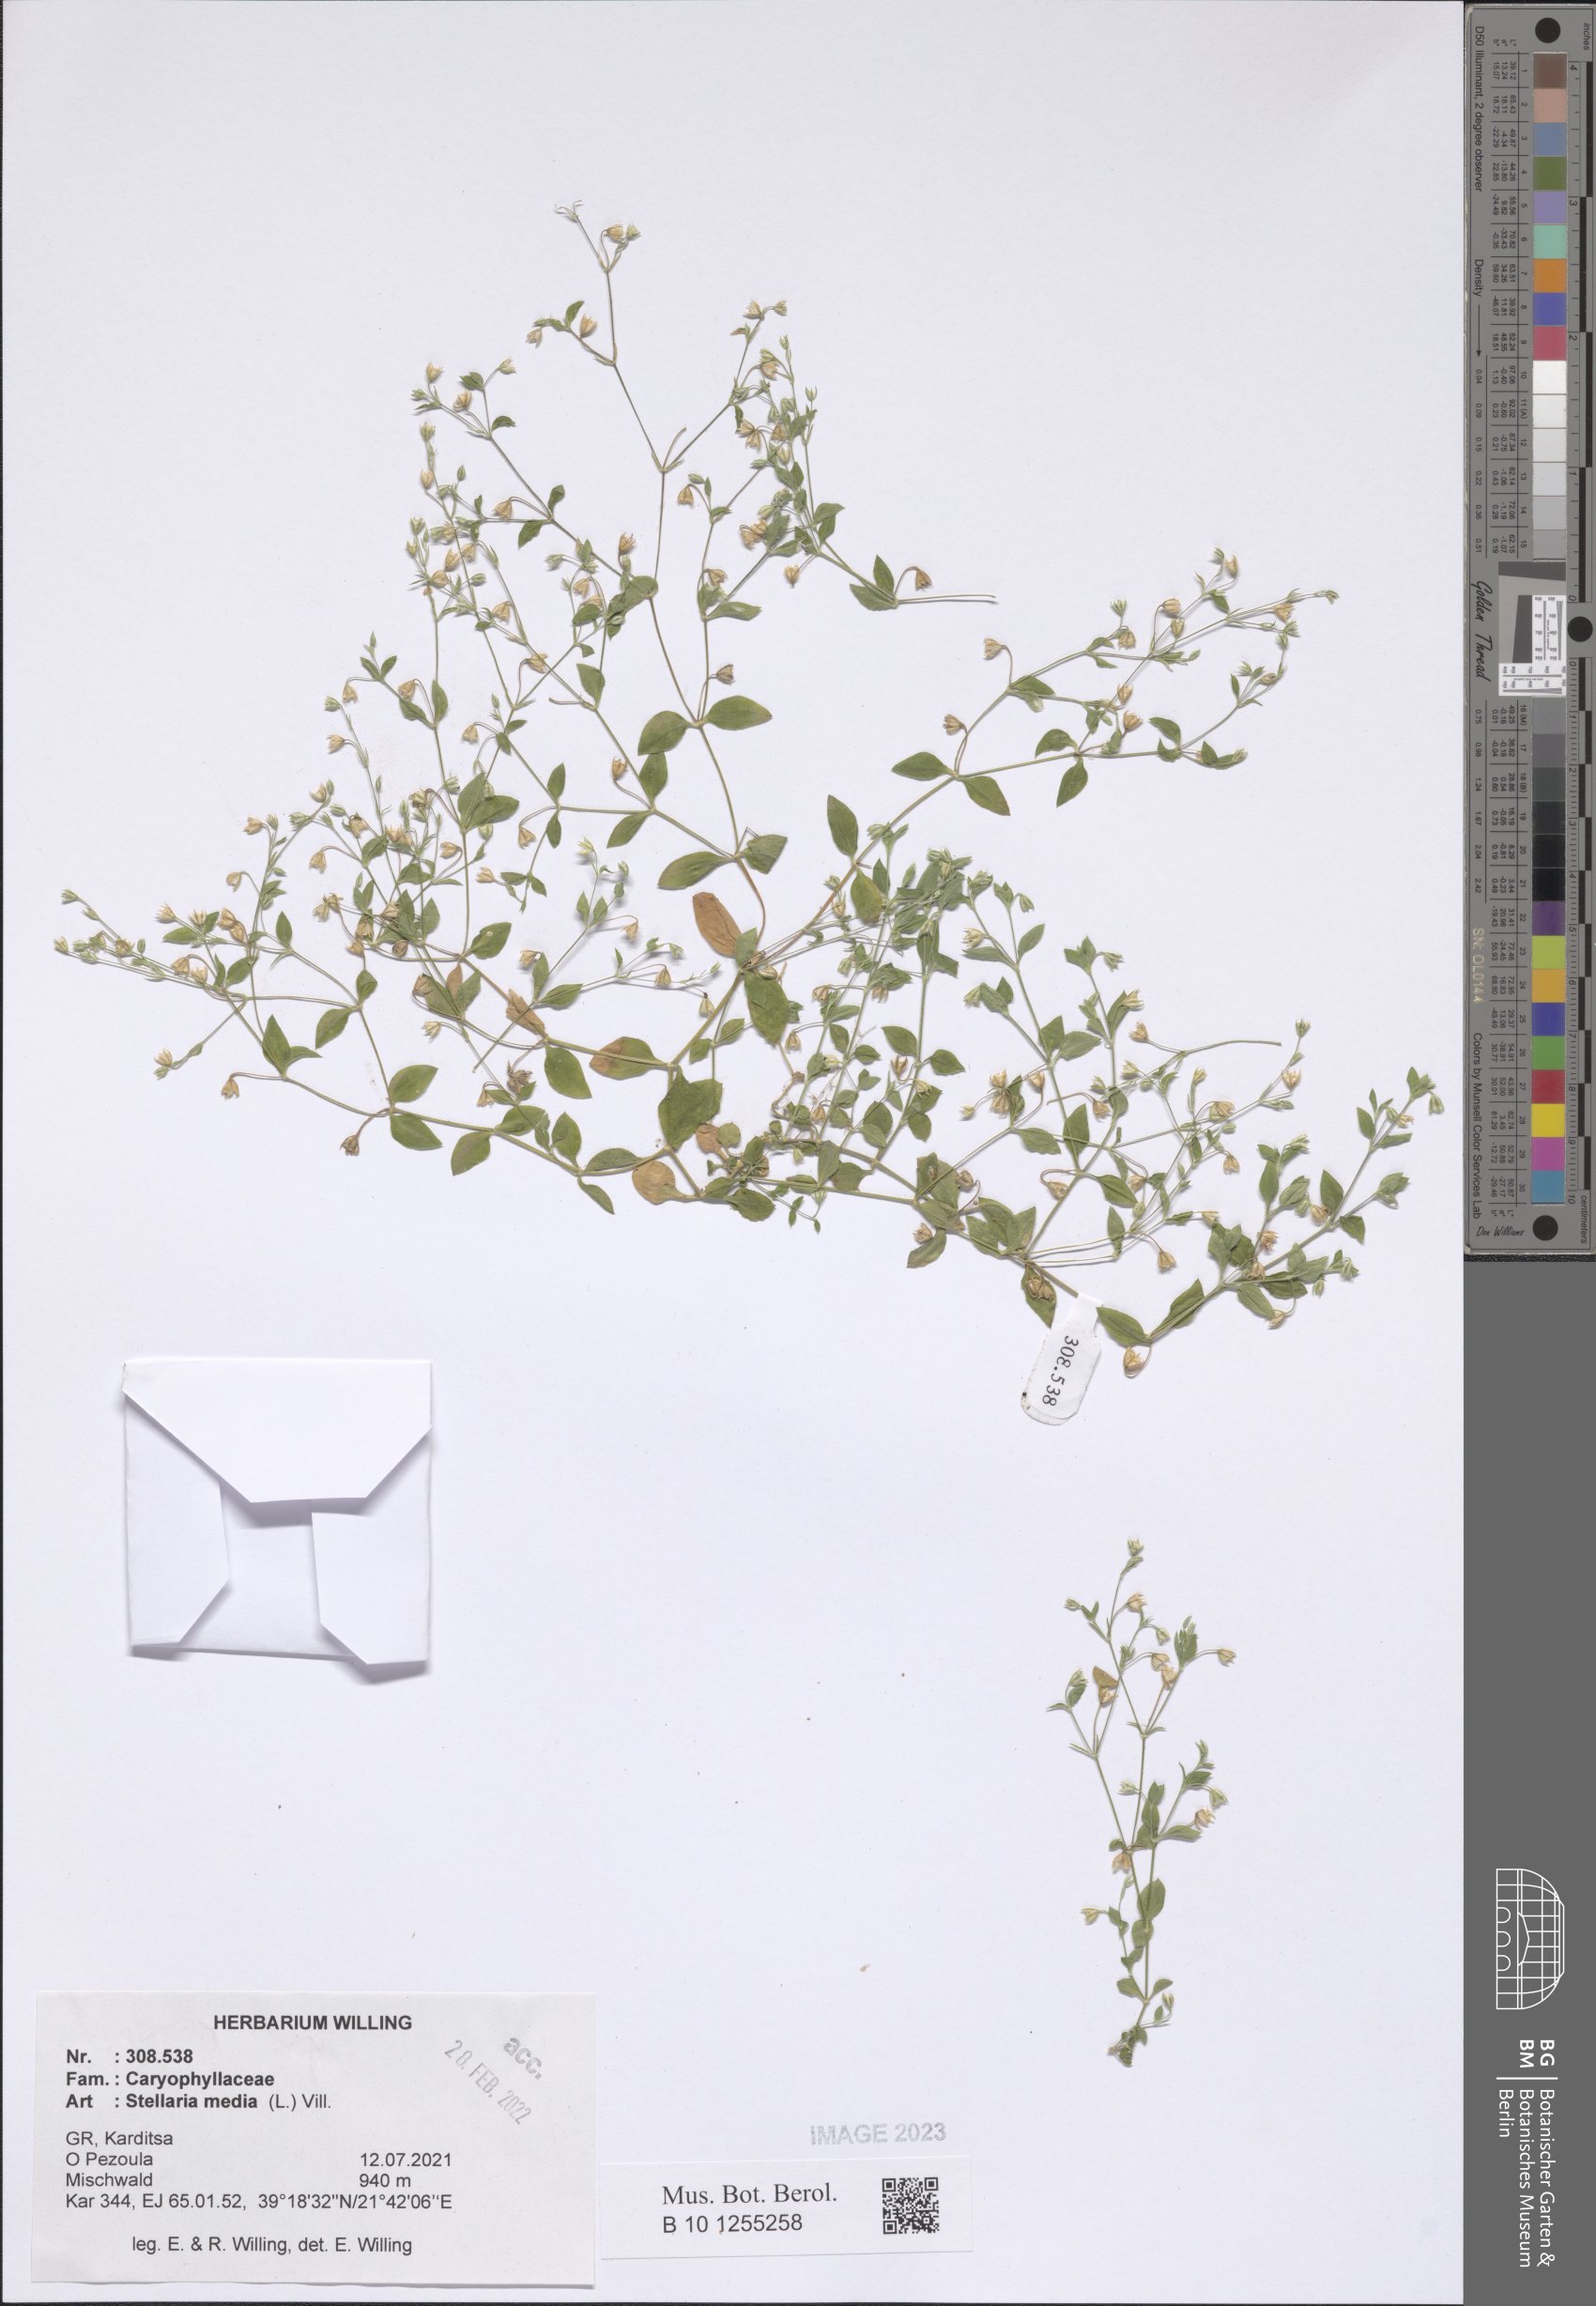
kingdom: Plantae
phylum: Tracheophyta
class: Magnoliopsida
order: Caryophyllales
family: Caryophyllaceae
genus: Stellaria
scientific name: Stellaria media
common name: Common chickweed
